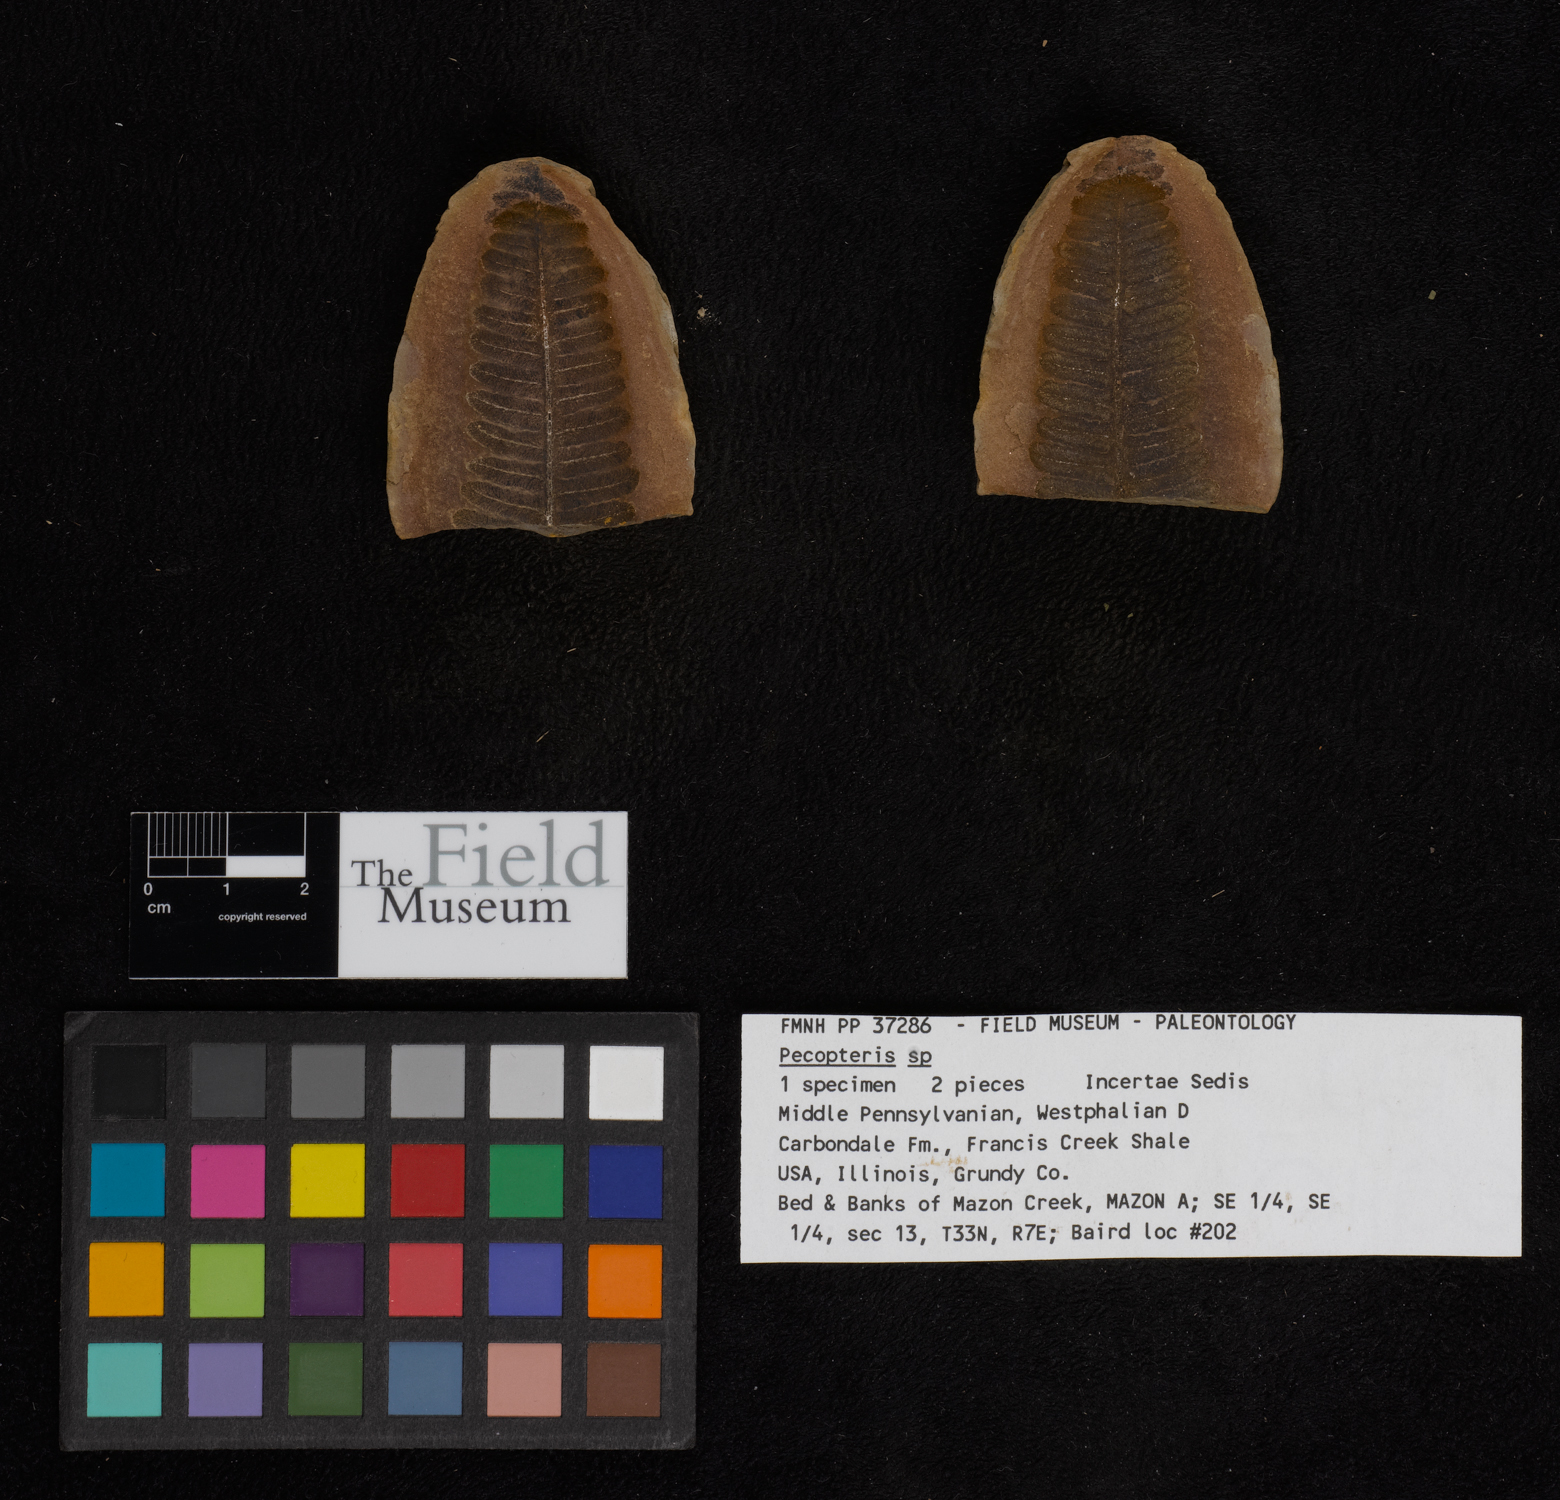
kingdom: Plantae
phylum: Tracheophyta
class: Polypodiopsida
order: Marattiales
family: Asterothecaceae
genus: Pecopteris
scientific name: Pecopteris
